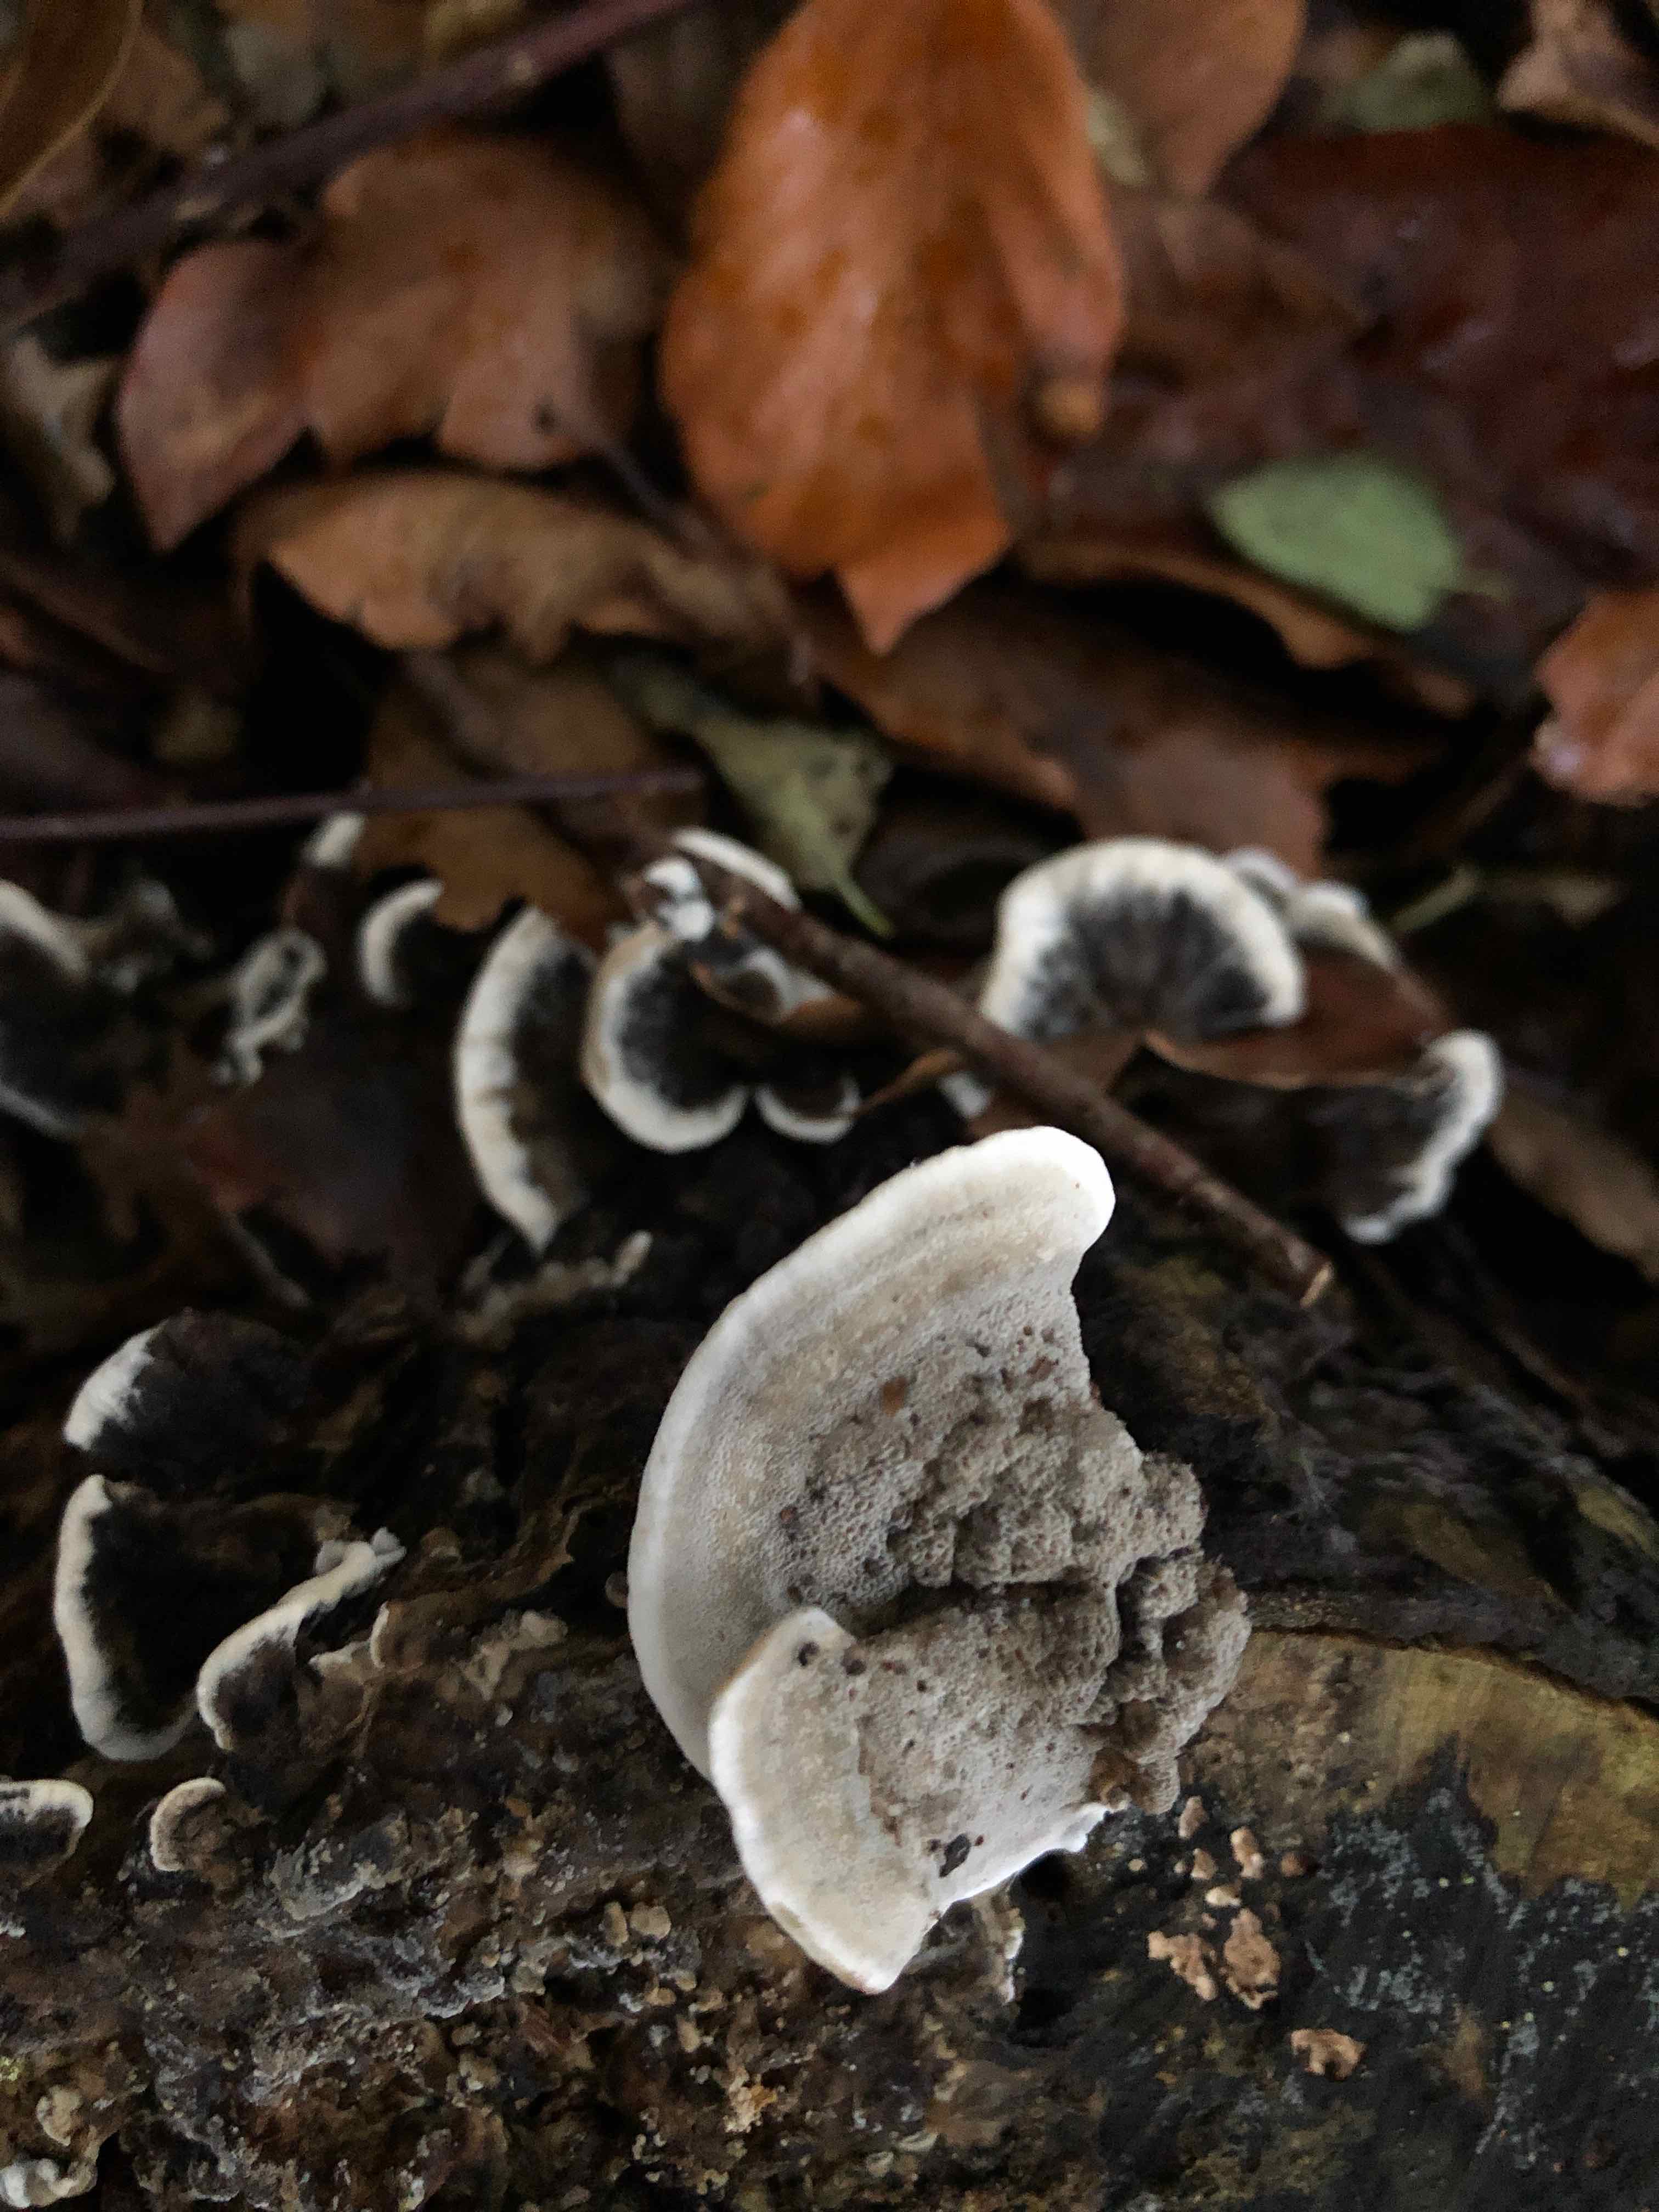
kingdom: Fungi
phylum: Basidiomycota
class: Agaricomycetes
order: Polyporales
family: Phanerochaetaceae
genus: Bjerkandera
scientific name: Bjerkandera adusta
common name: sveden sodporesvamp
